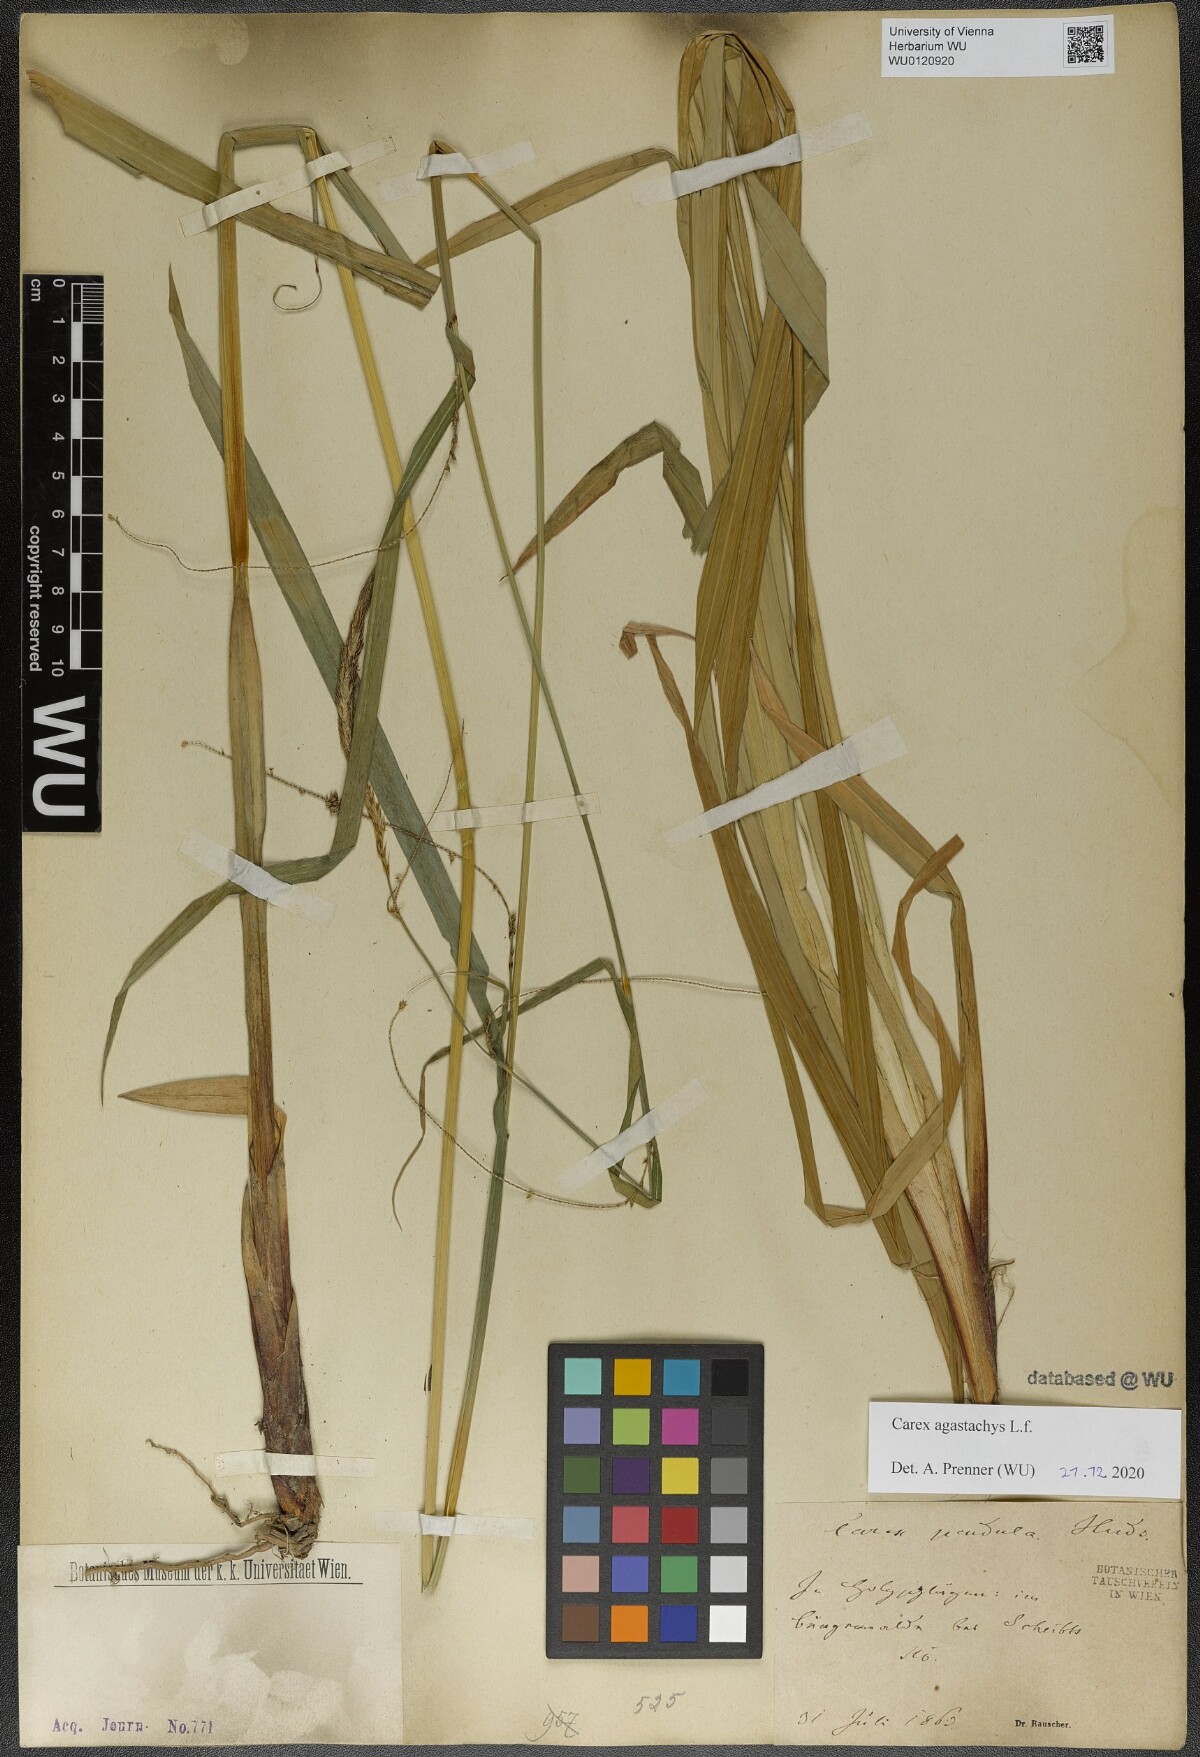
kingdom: Plantae
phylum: Tracheophyta
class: Liliopsida
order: Poales
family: Cyperaceae
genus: Carex
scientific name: Carex agastachys
